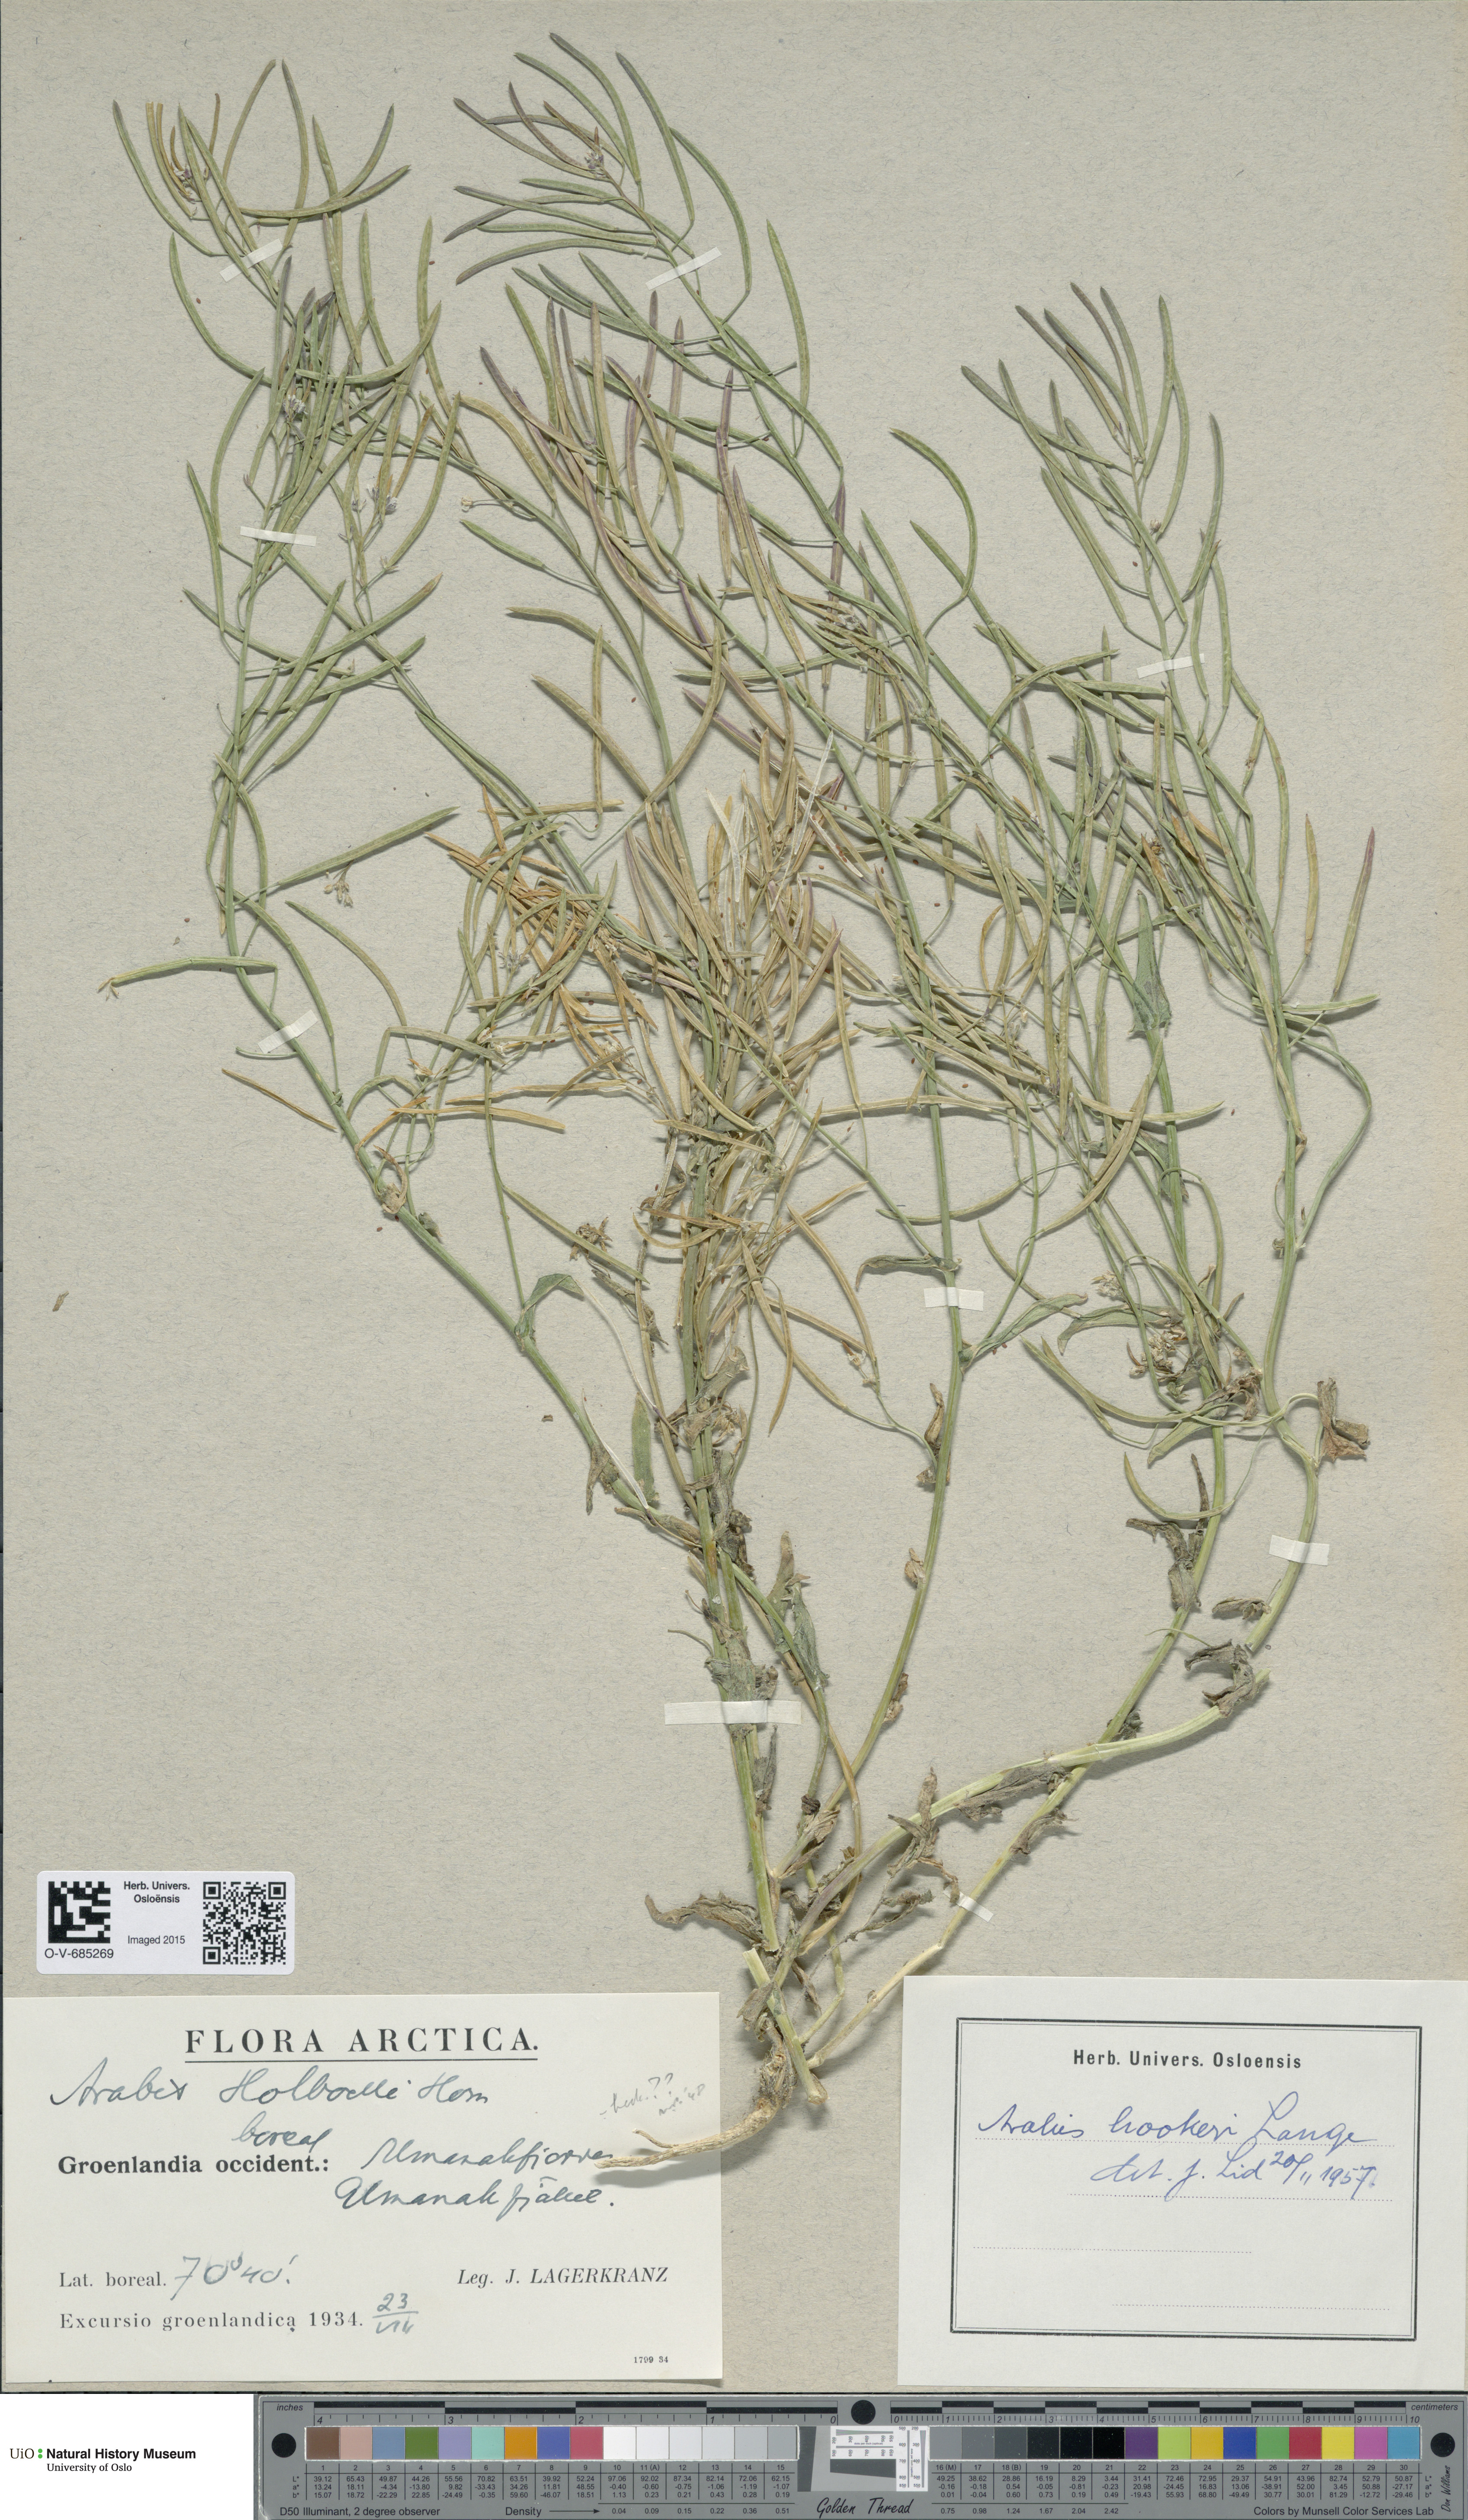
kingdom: Plantae
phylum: Tracheophyta
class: Magnoliopsida
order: Brassicales
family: Brassicaceae
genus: Crucihimalaya
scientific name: Crucihimalaya bursifolia
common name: Soft fissurewort
